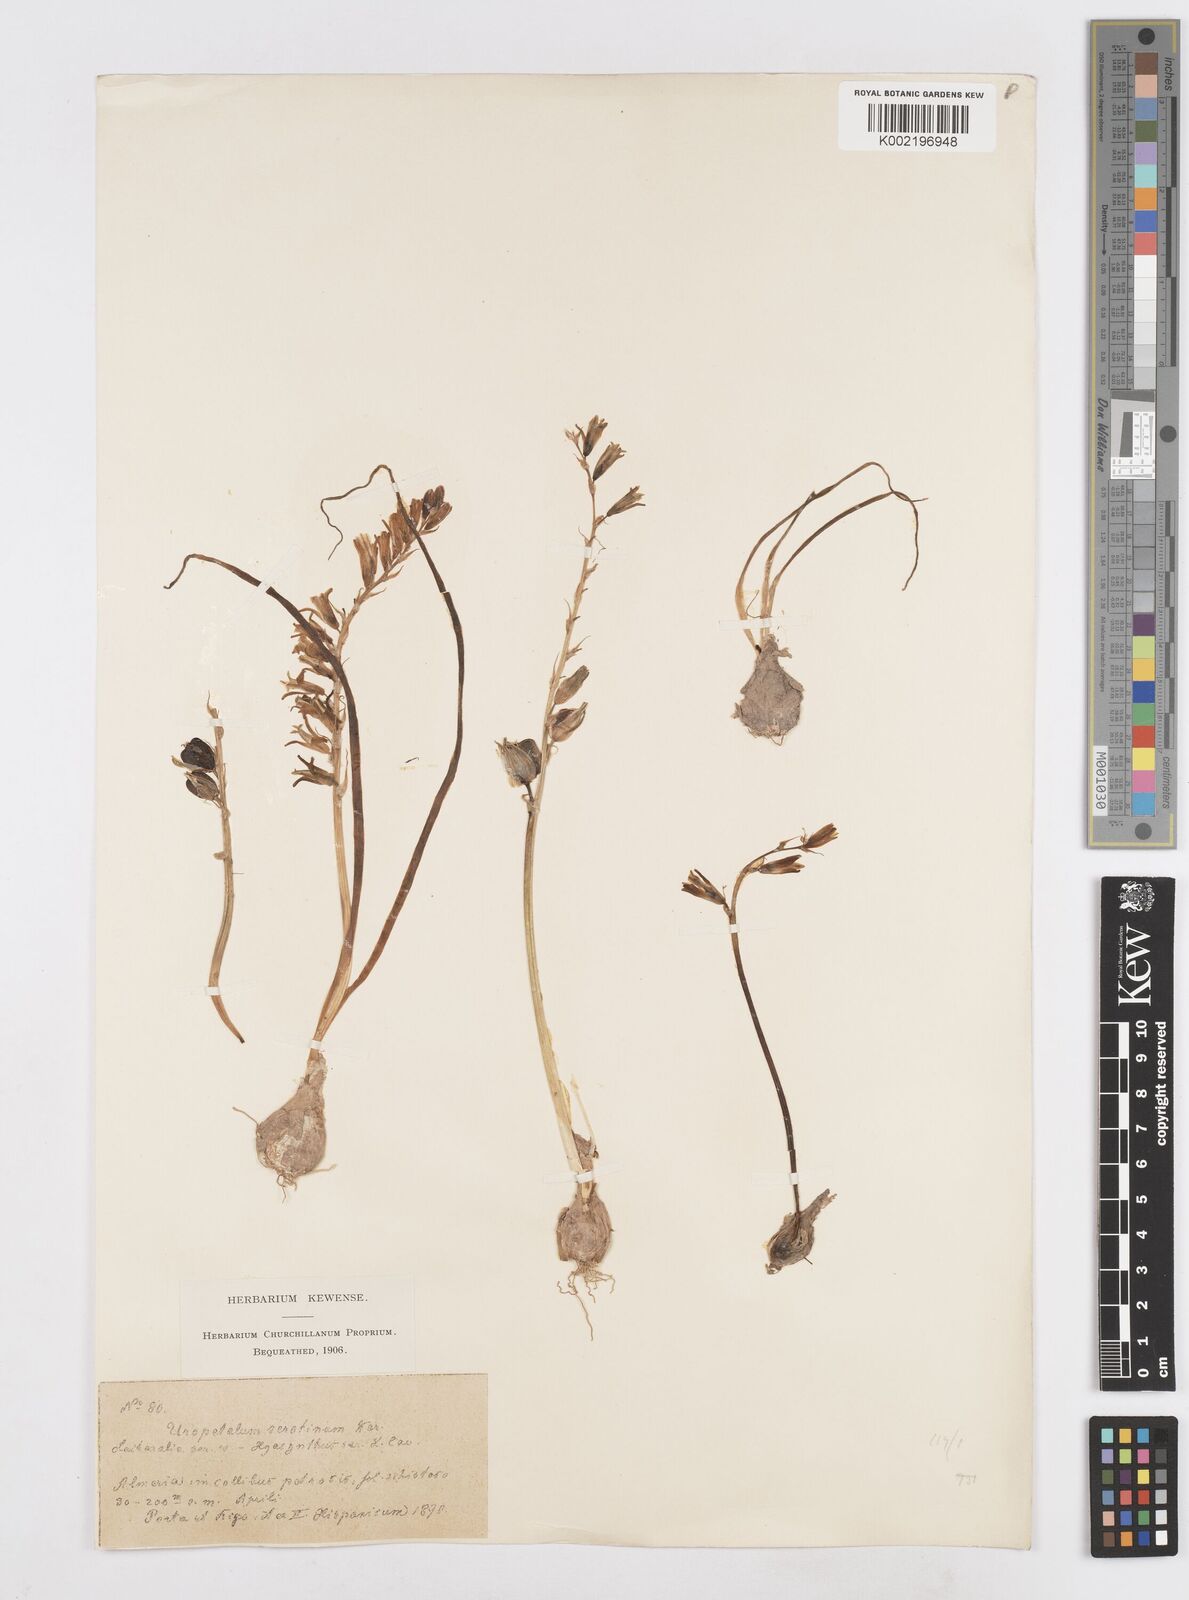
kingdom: Plantae
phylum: Tracheophyta
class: Liliopsida
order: Asparagales
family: Asparagaceae
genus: Dipcadi
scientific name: Dipcadi serotinum
